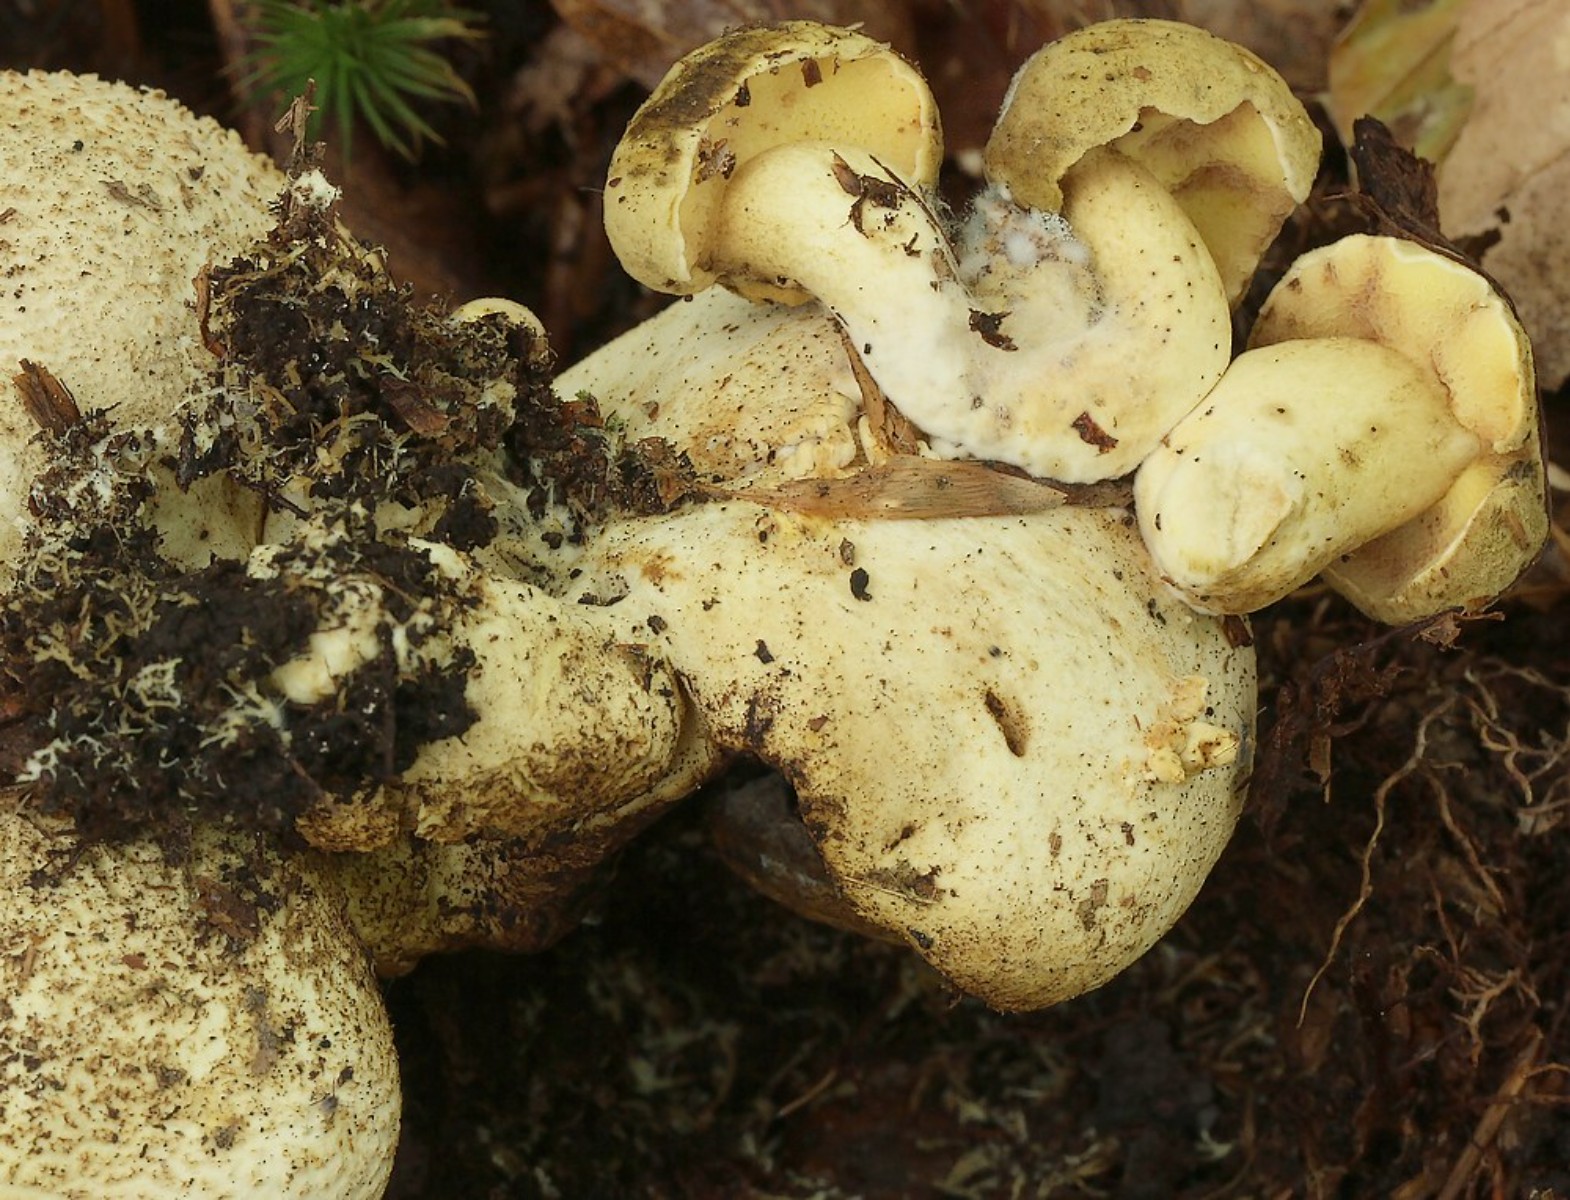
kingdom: Fungi
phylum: Basidiomycota
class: Agaricomycetes
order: Boletales
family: Boletaceae
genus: Pseudoboletus
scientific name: Pseudoboletus parasiticus
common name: snyltende rørhat
